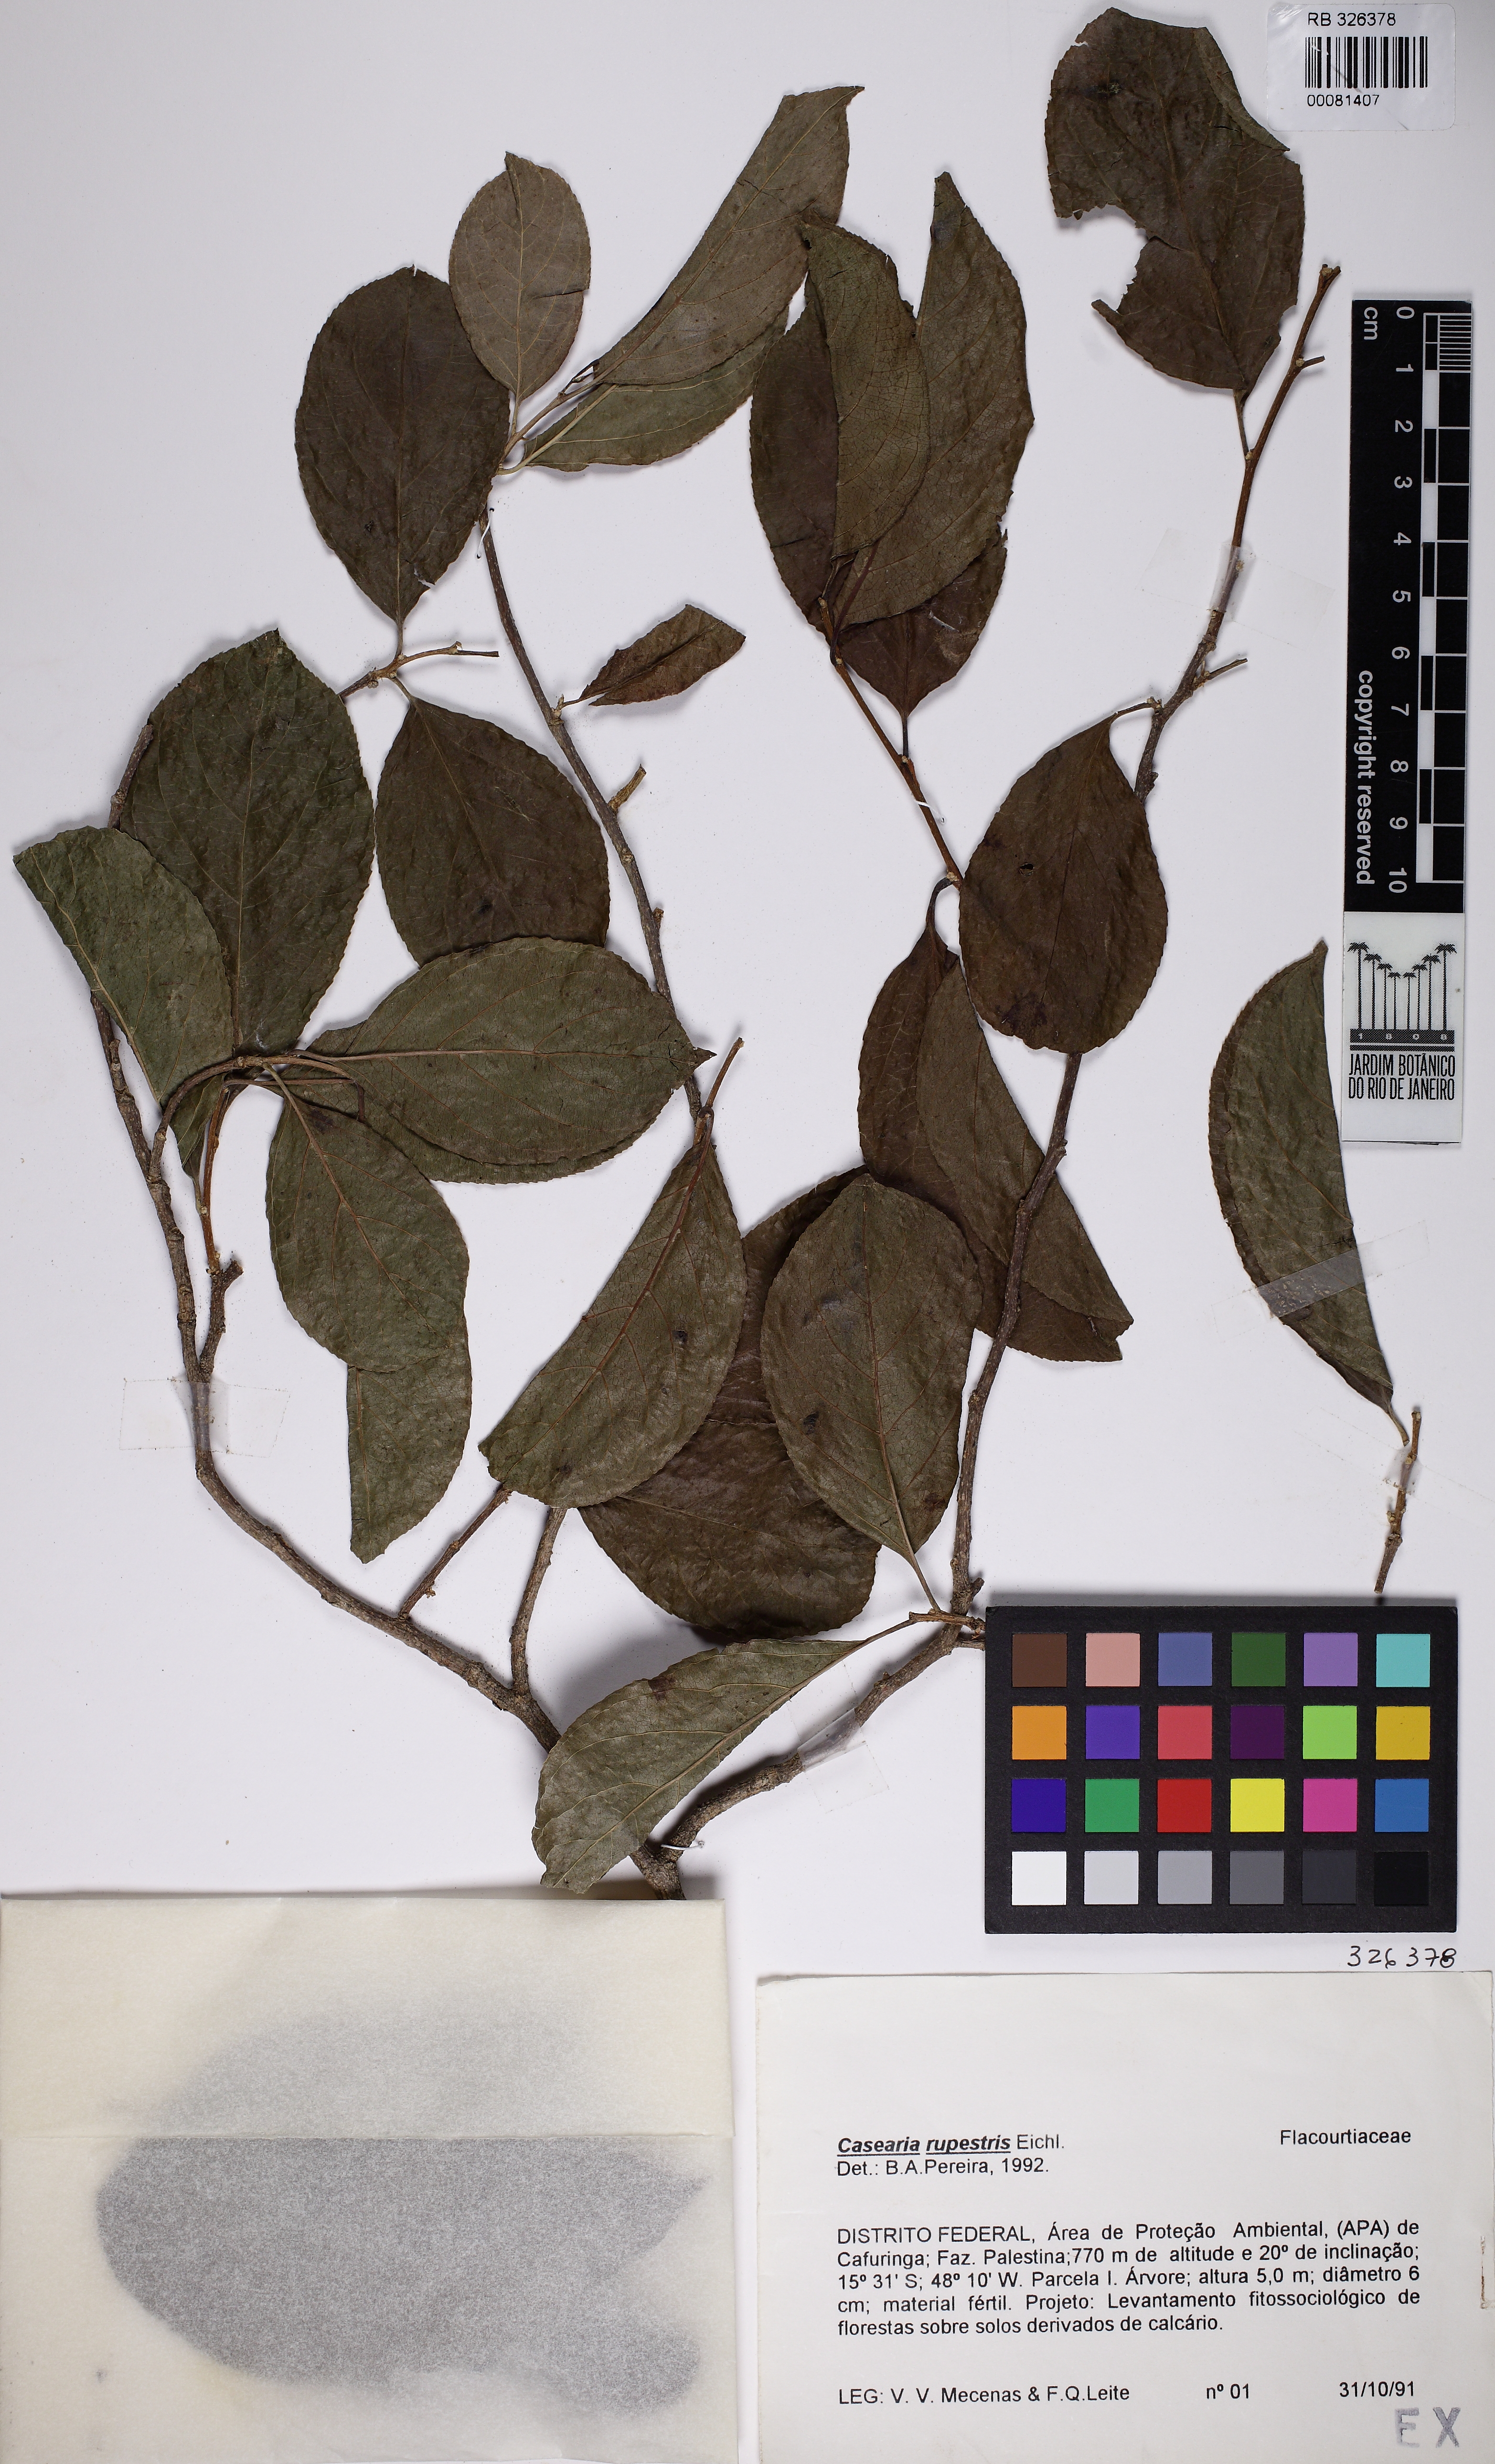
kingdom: Plantae
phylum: Tracheophyta
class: Magnoliopsida
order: Malpighiales
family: Salicaceae
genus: Casearia
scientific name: Casearia rupestris
